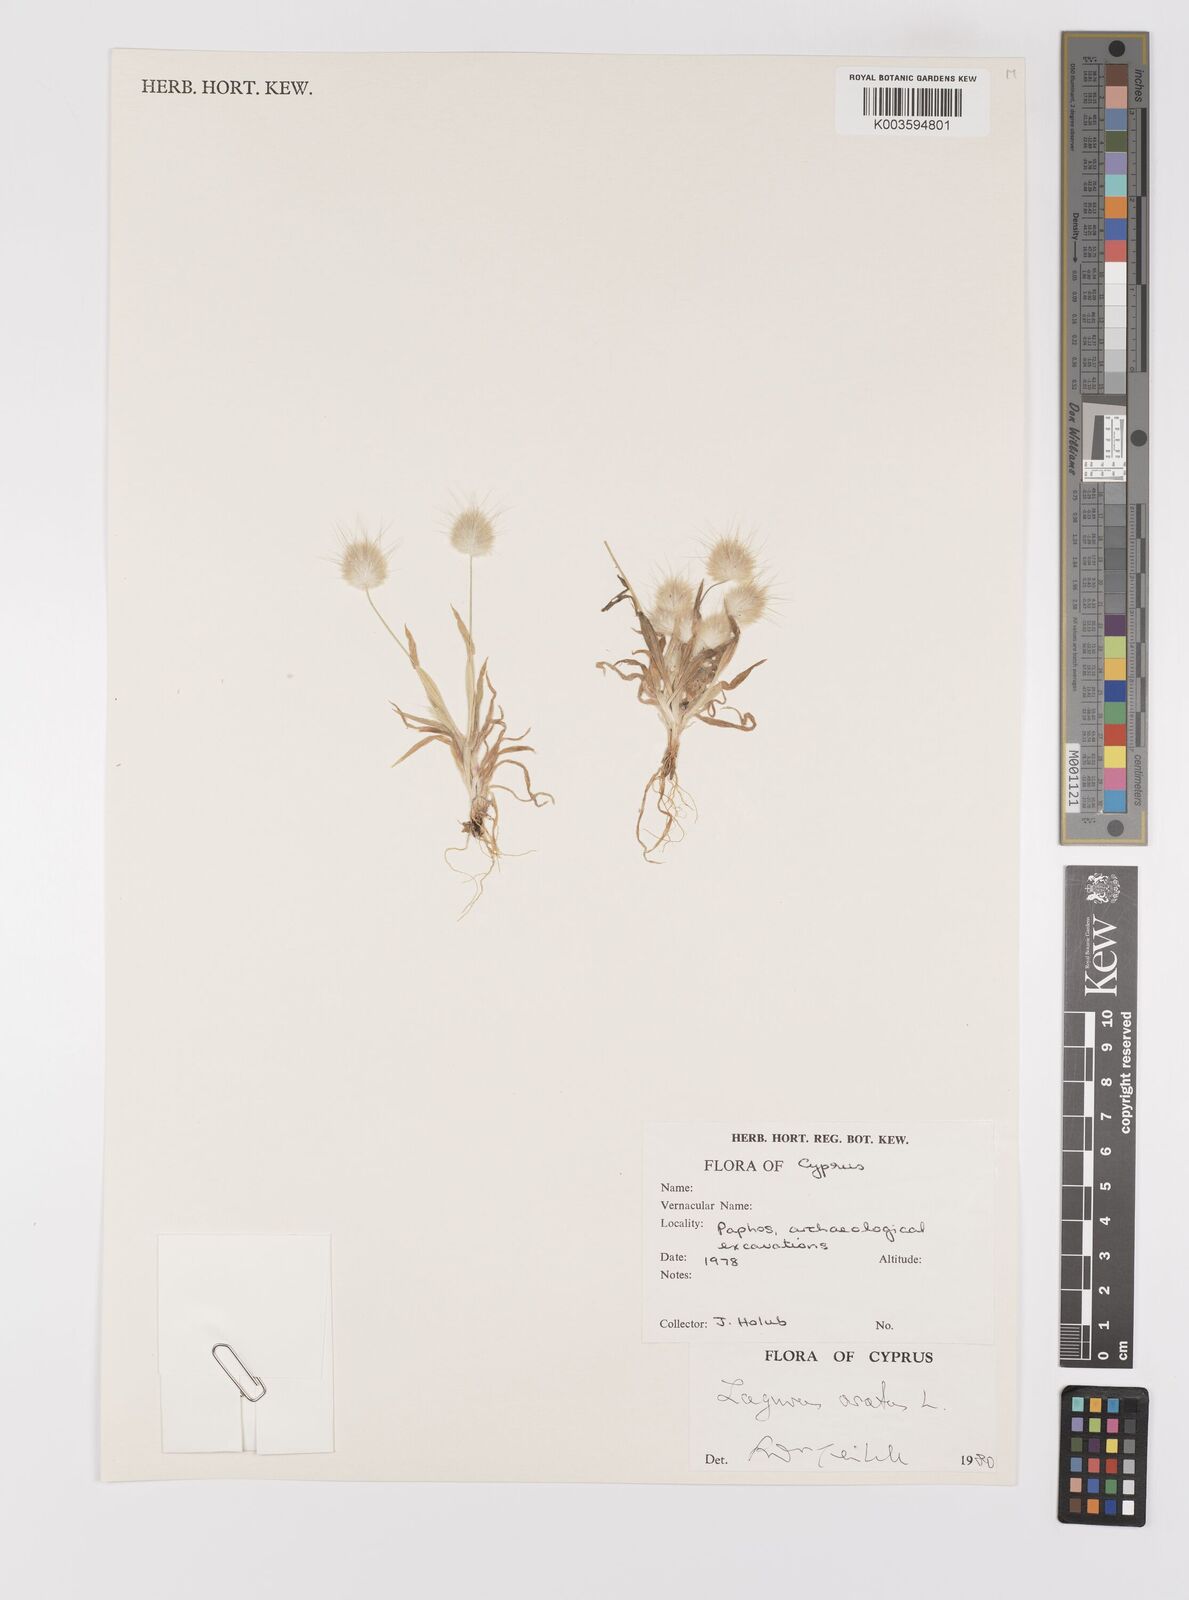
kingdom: Plantae
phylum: Tracheophyta
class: Liliopsida
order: Poales
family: Poaceae
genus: Lagurus
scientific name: Lagurus ovatus
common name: Hare's-tail
